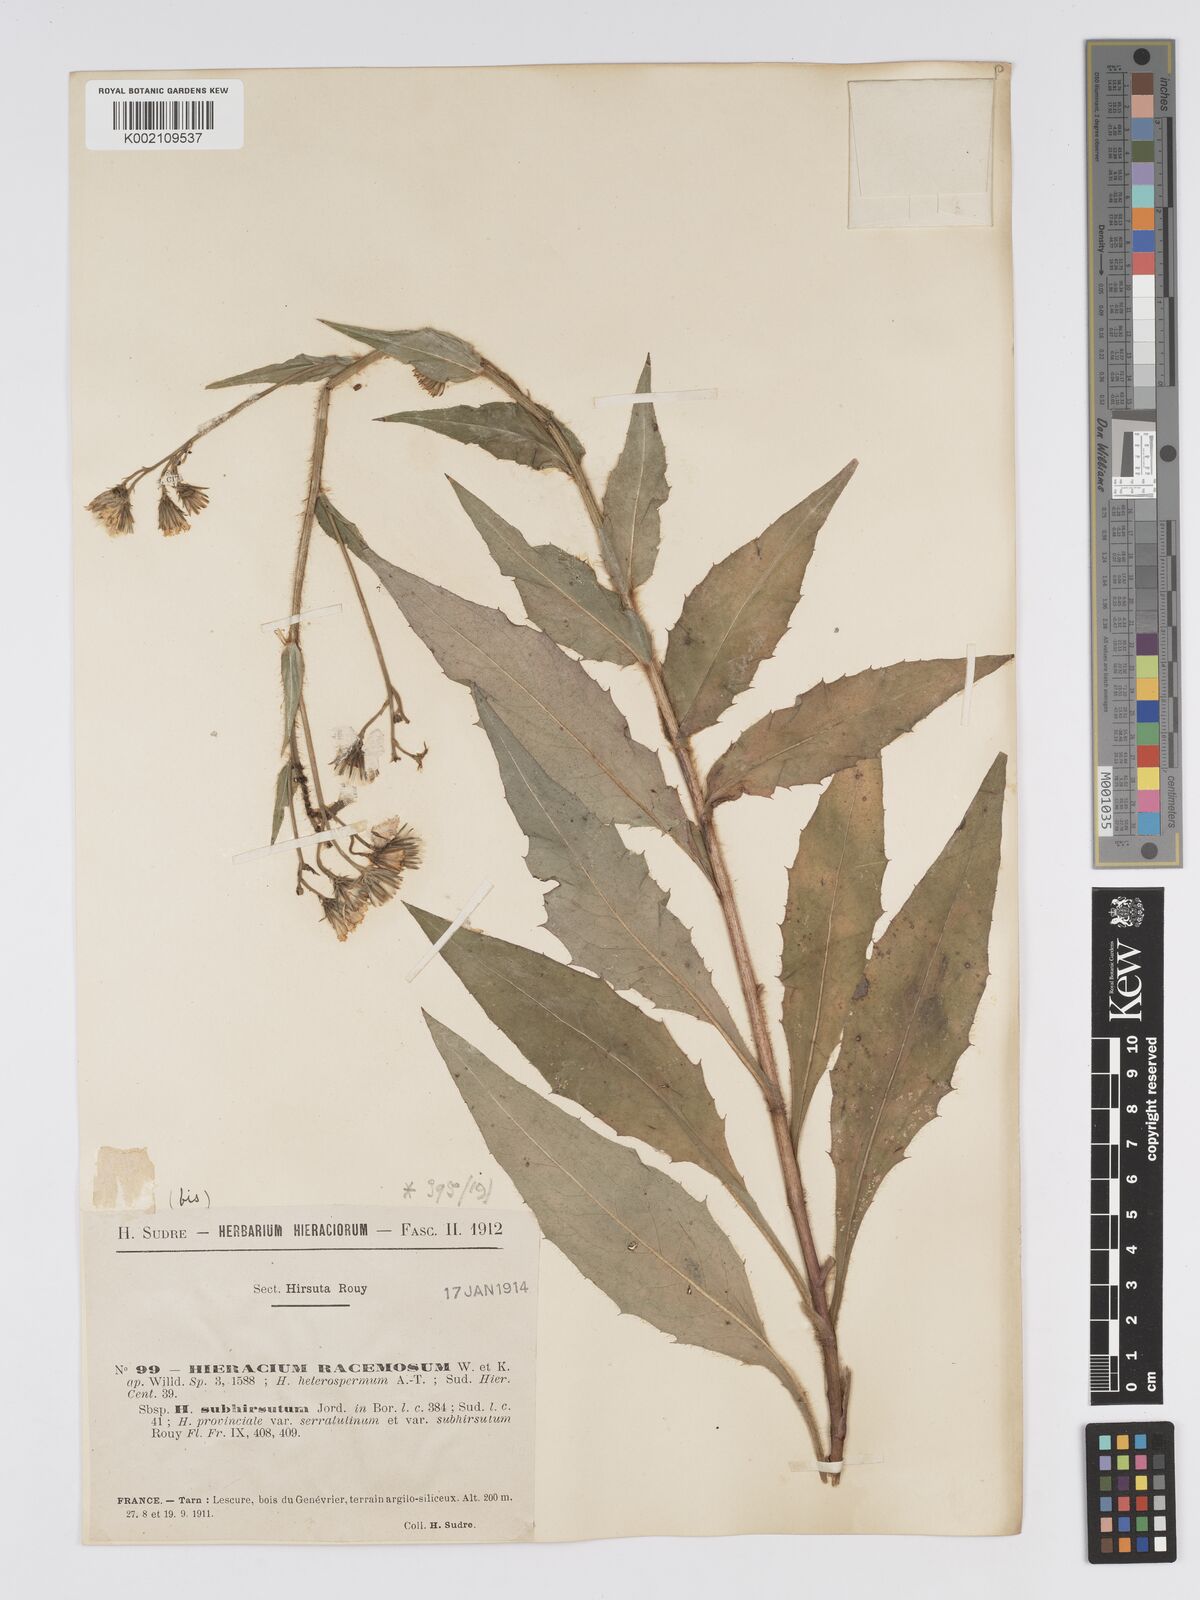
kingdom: Plantae
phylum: Tracheophyta
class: Magnoliopsida
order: Asterales
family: Asteraceae
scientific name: Asteraceae
